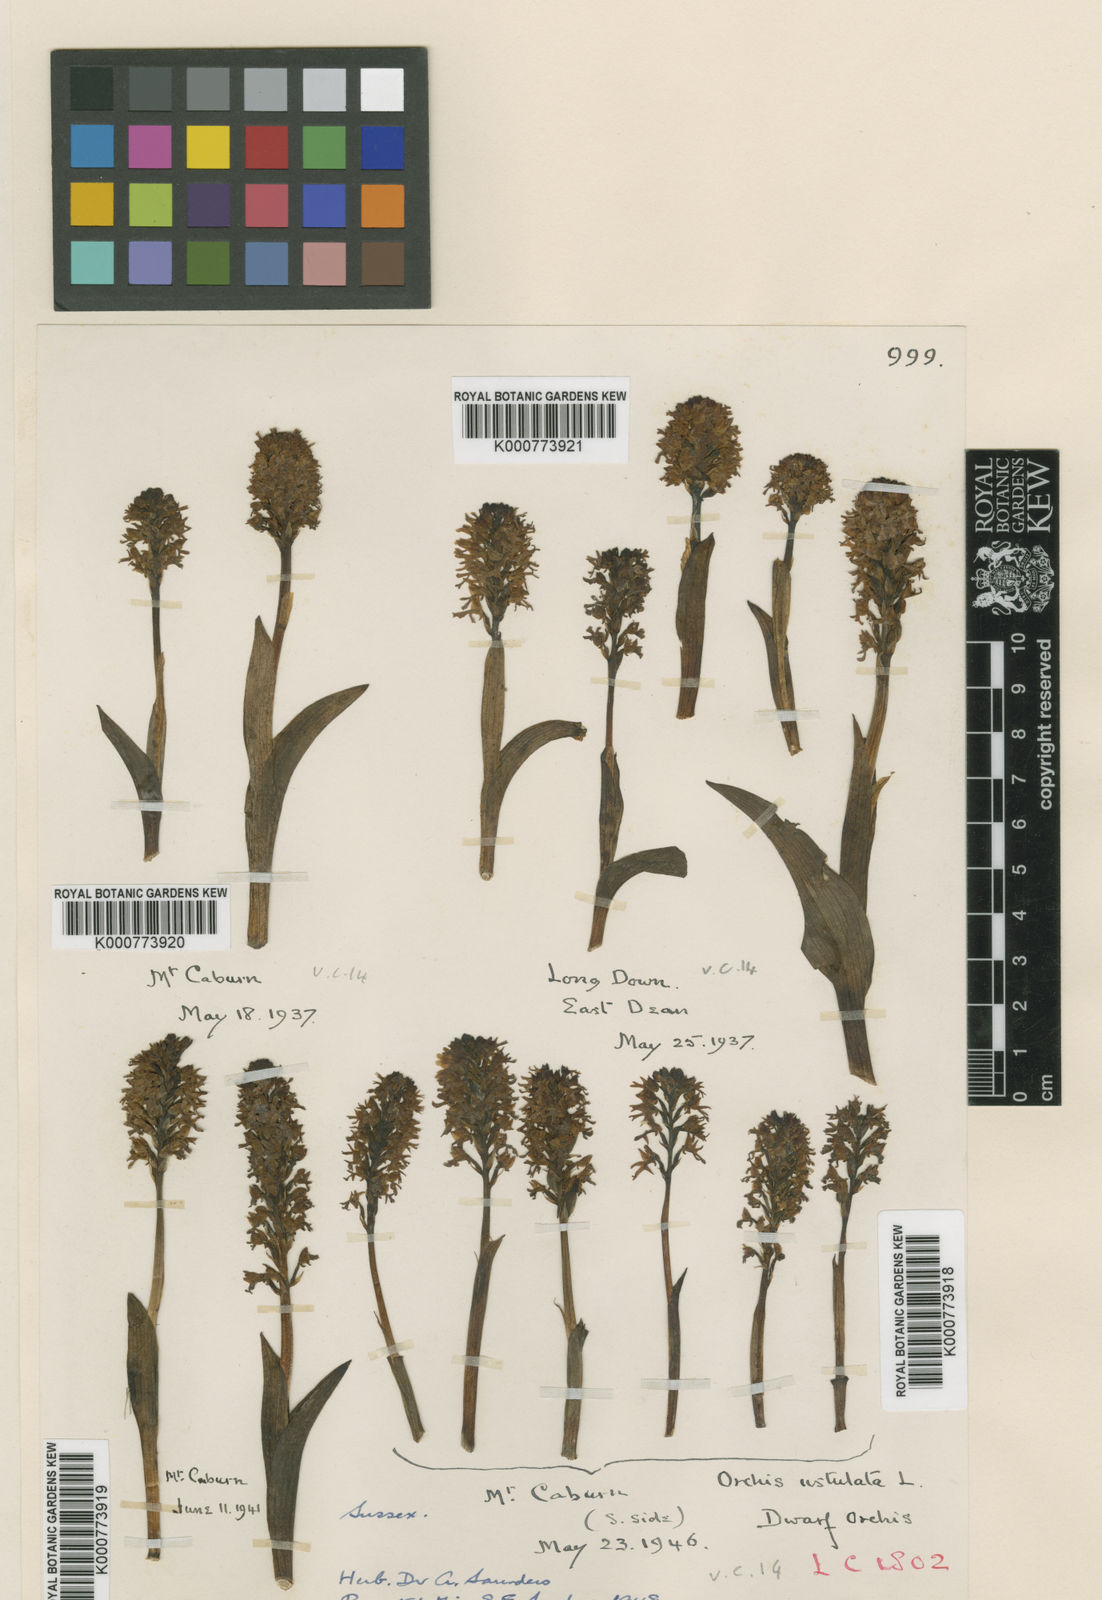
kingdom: Plantae
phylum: Tracheophyta
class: Liliopsida
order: Asparagales
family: Orchidaceae
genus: Neotinea
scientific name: Neotinea ustulata
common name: Burnt orchid
